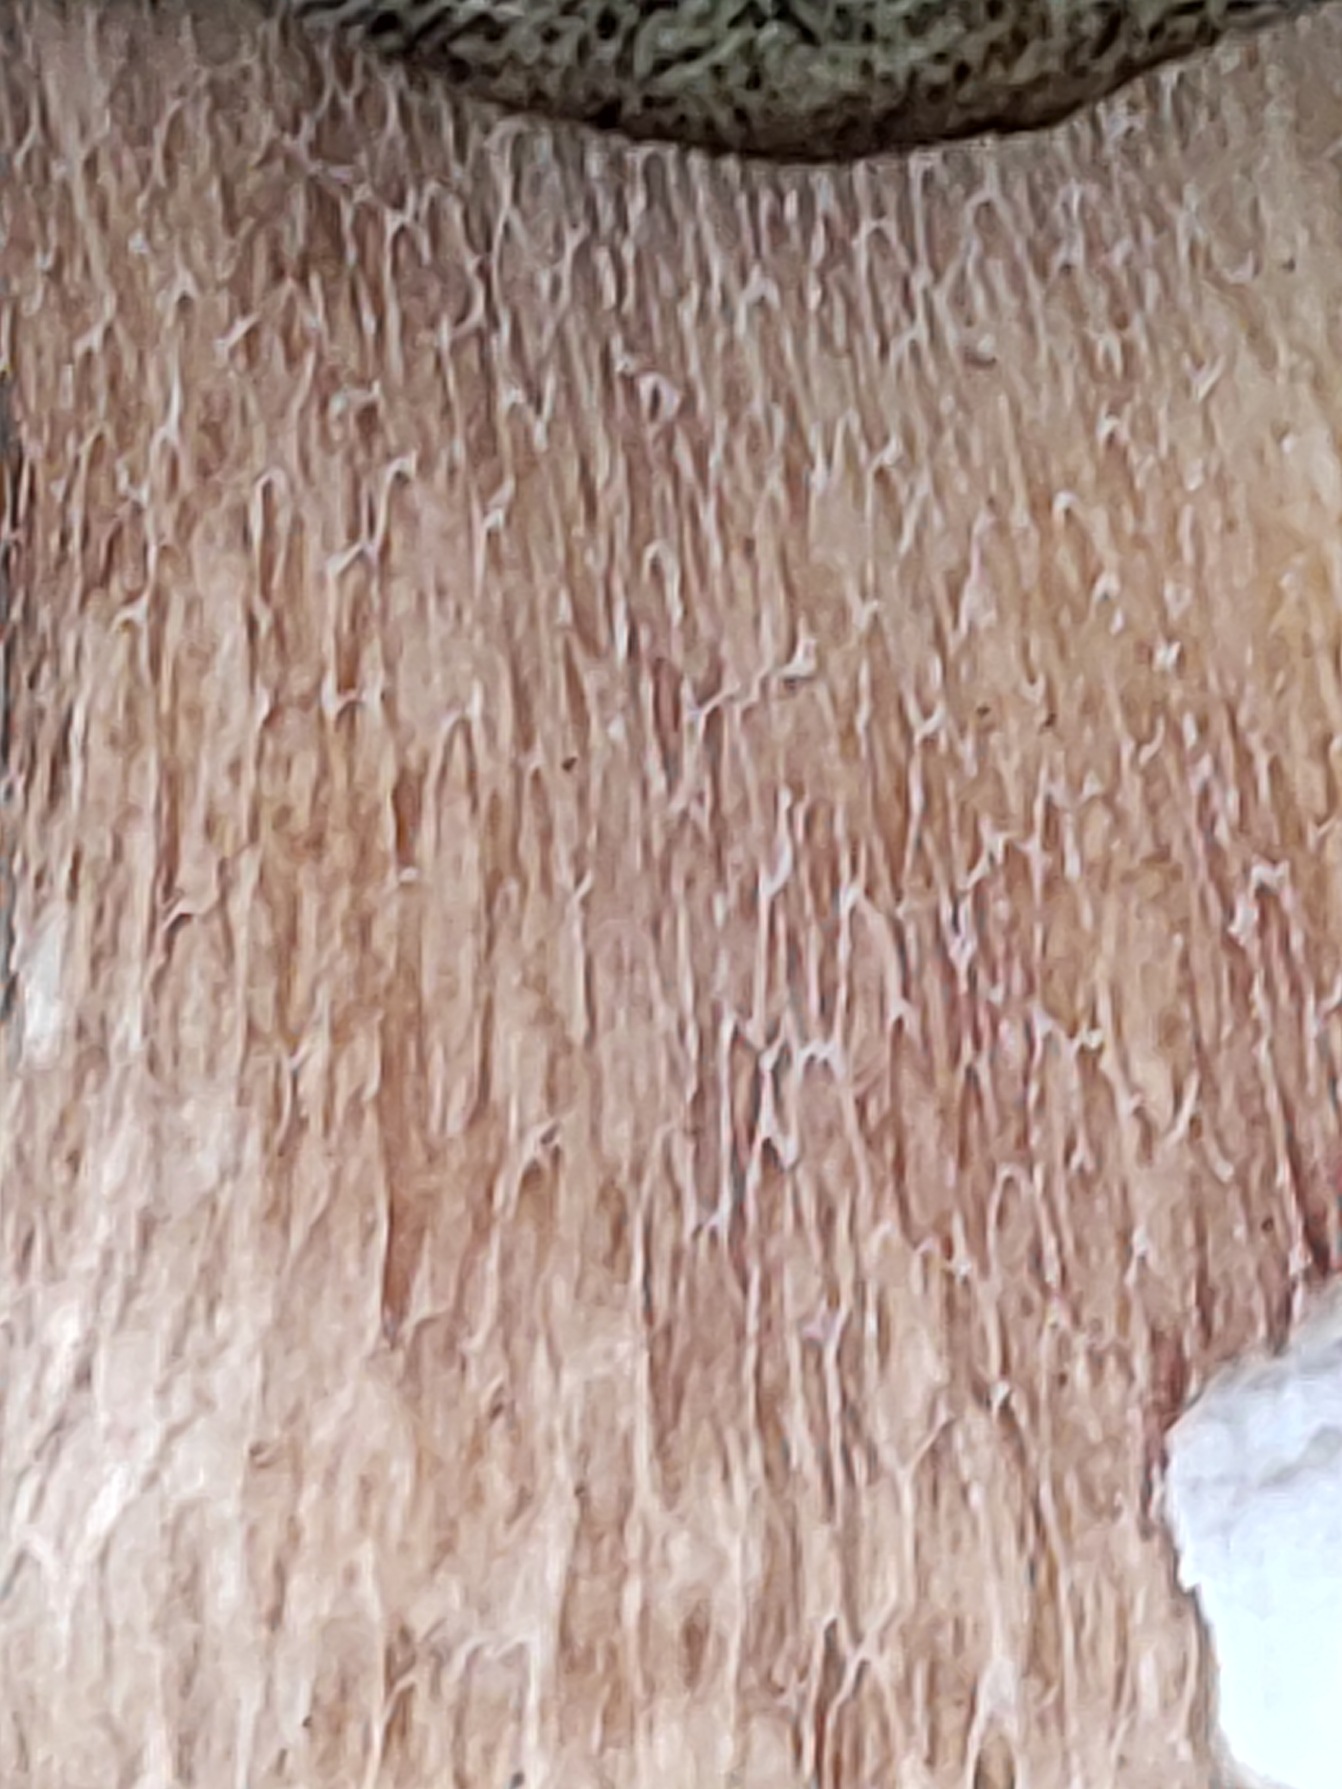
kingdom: Fungi
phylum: Basidiomycota
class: Agaricomycetes
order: Boletales
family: Boletaceae
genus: Boletus
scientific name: Boletus edulis
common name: Spiselig rørhat/karl johan
